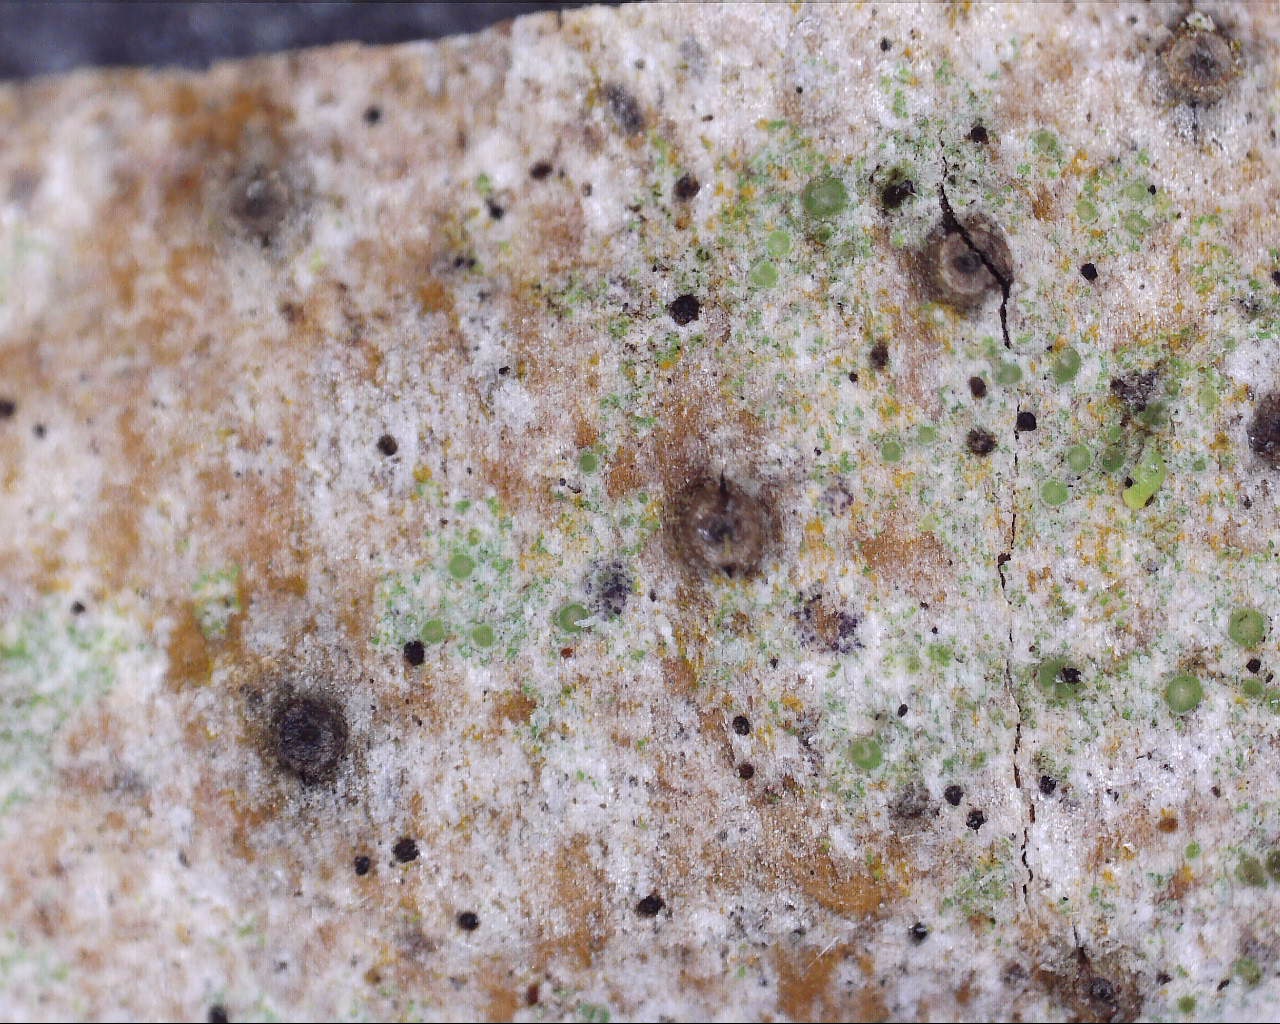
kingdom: Fungi
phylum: Ascomycota
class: Sordariomycetes
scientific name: Sordariomycetes
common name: kernesvampklassen
